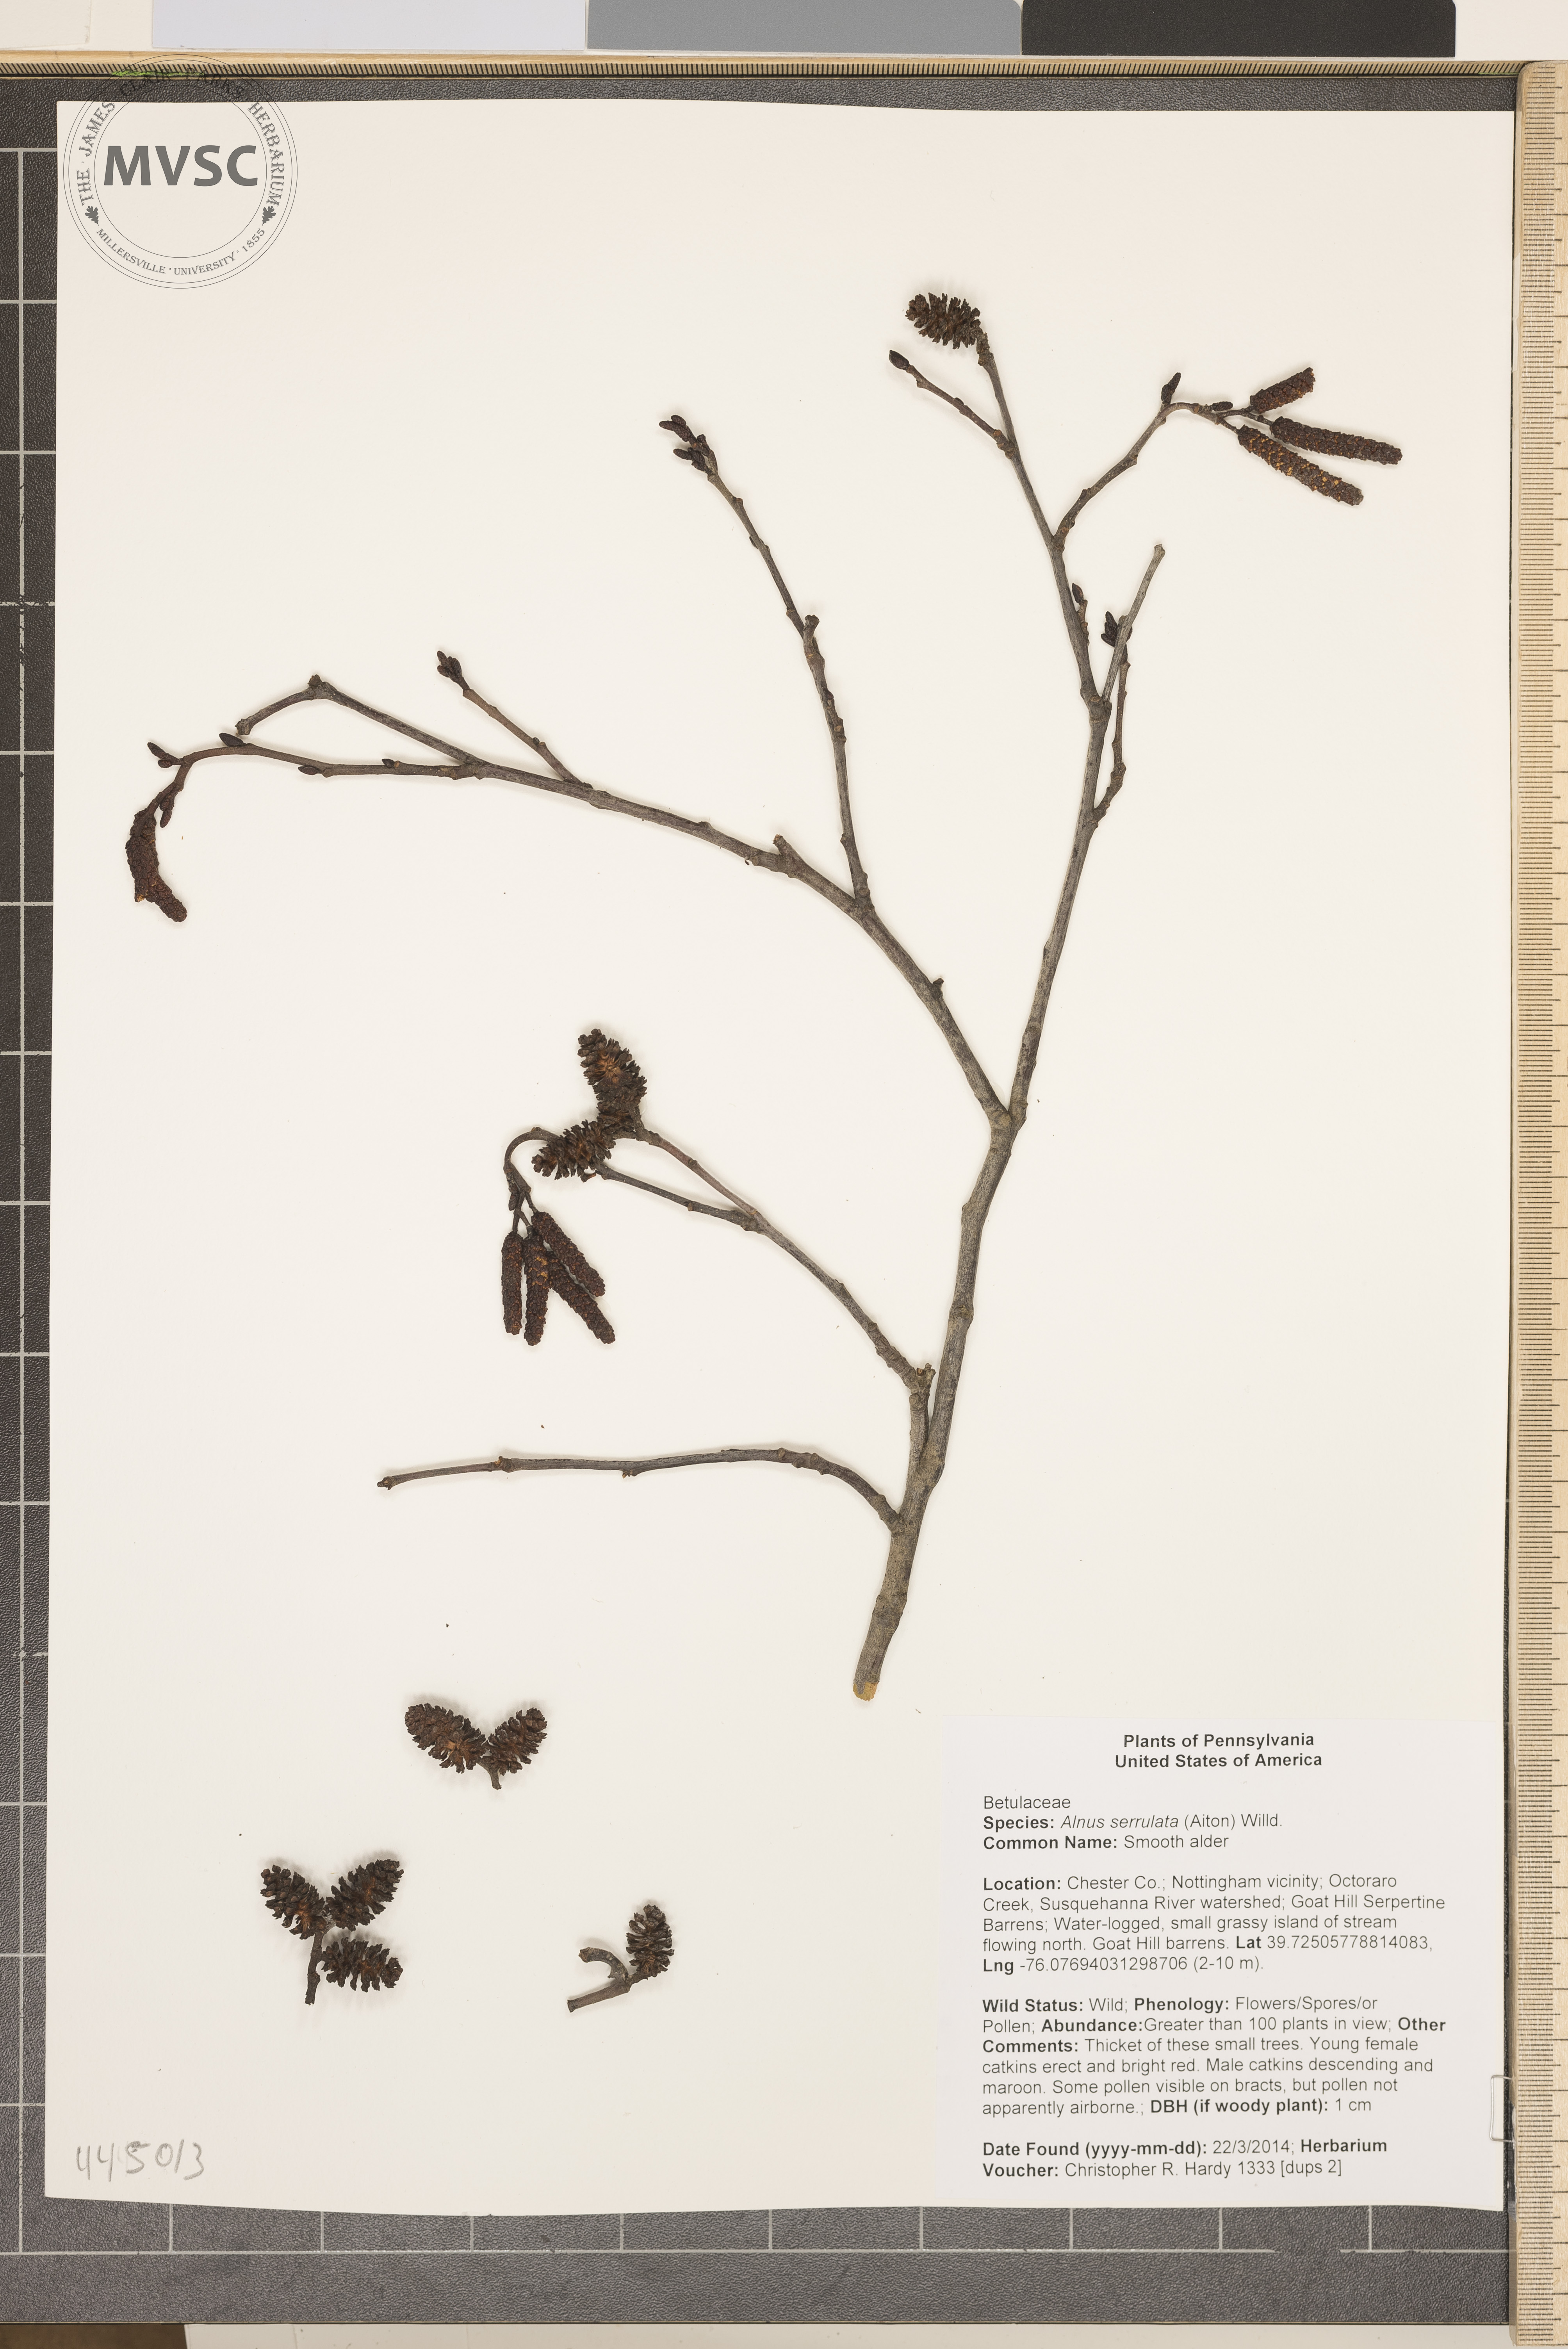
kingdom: Plantae
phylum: Tracheophyta
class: Magnoliopsida
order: Fagales
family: Betulaceae
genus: Alnus
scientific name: Alnus serrulata
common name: Smooth alder
